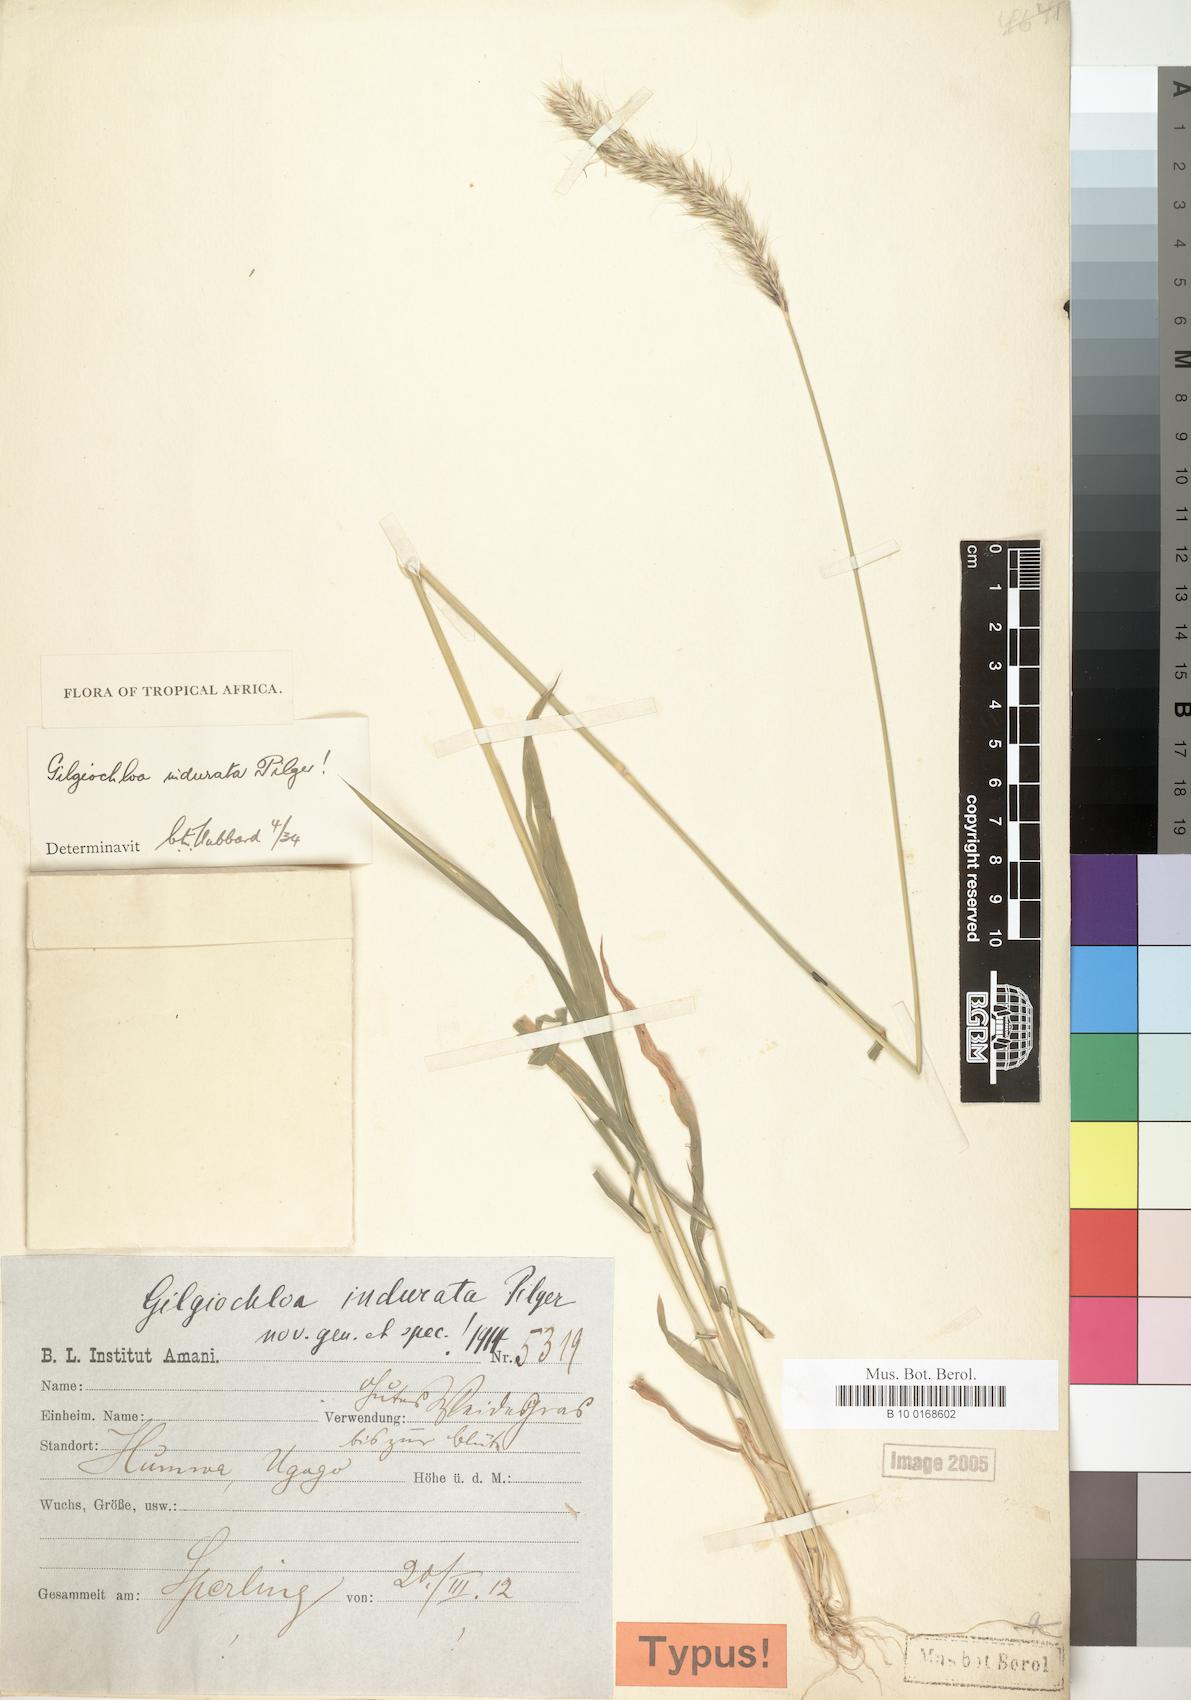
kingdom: Plantae
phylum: Tracheophyta
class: Liliopsida
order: Poales
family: Poaceae
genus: Gilgiochloa
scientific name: Gilgiochloa indurata
